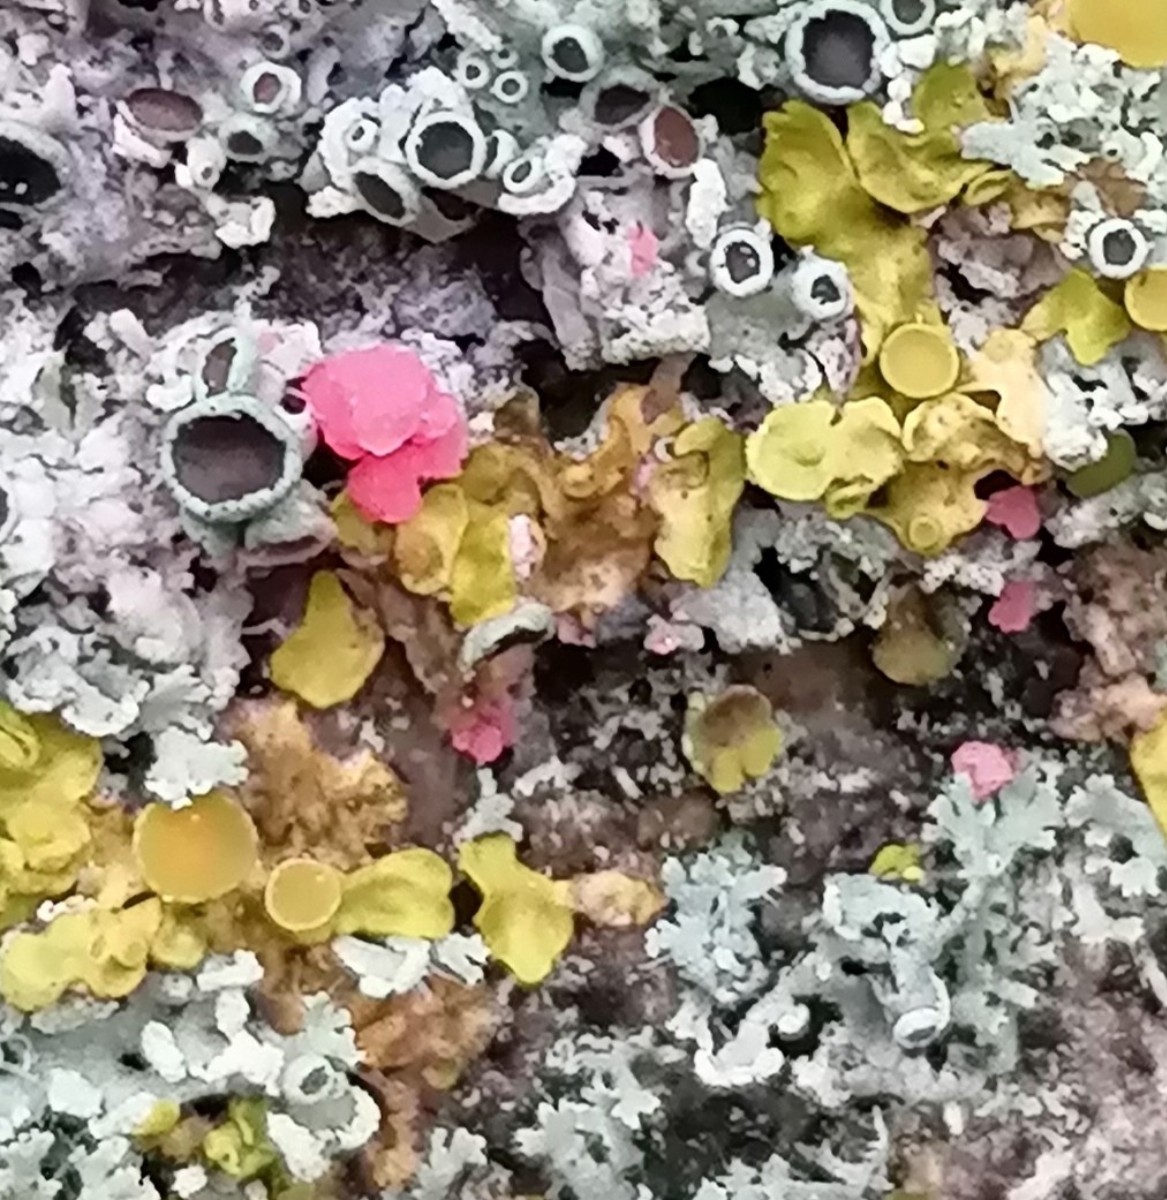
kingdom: Fungi
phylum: Ascomycota
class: Sordariomycetes
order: Hypocreales
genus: Illosporiopsis
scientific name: Illosporiopsis christiansenii
